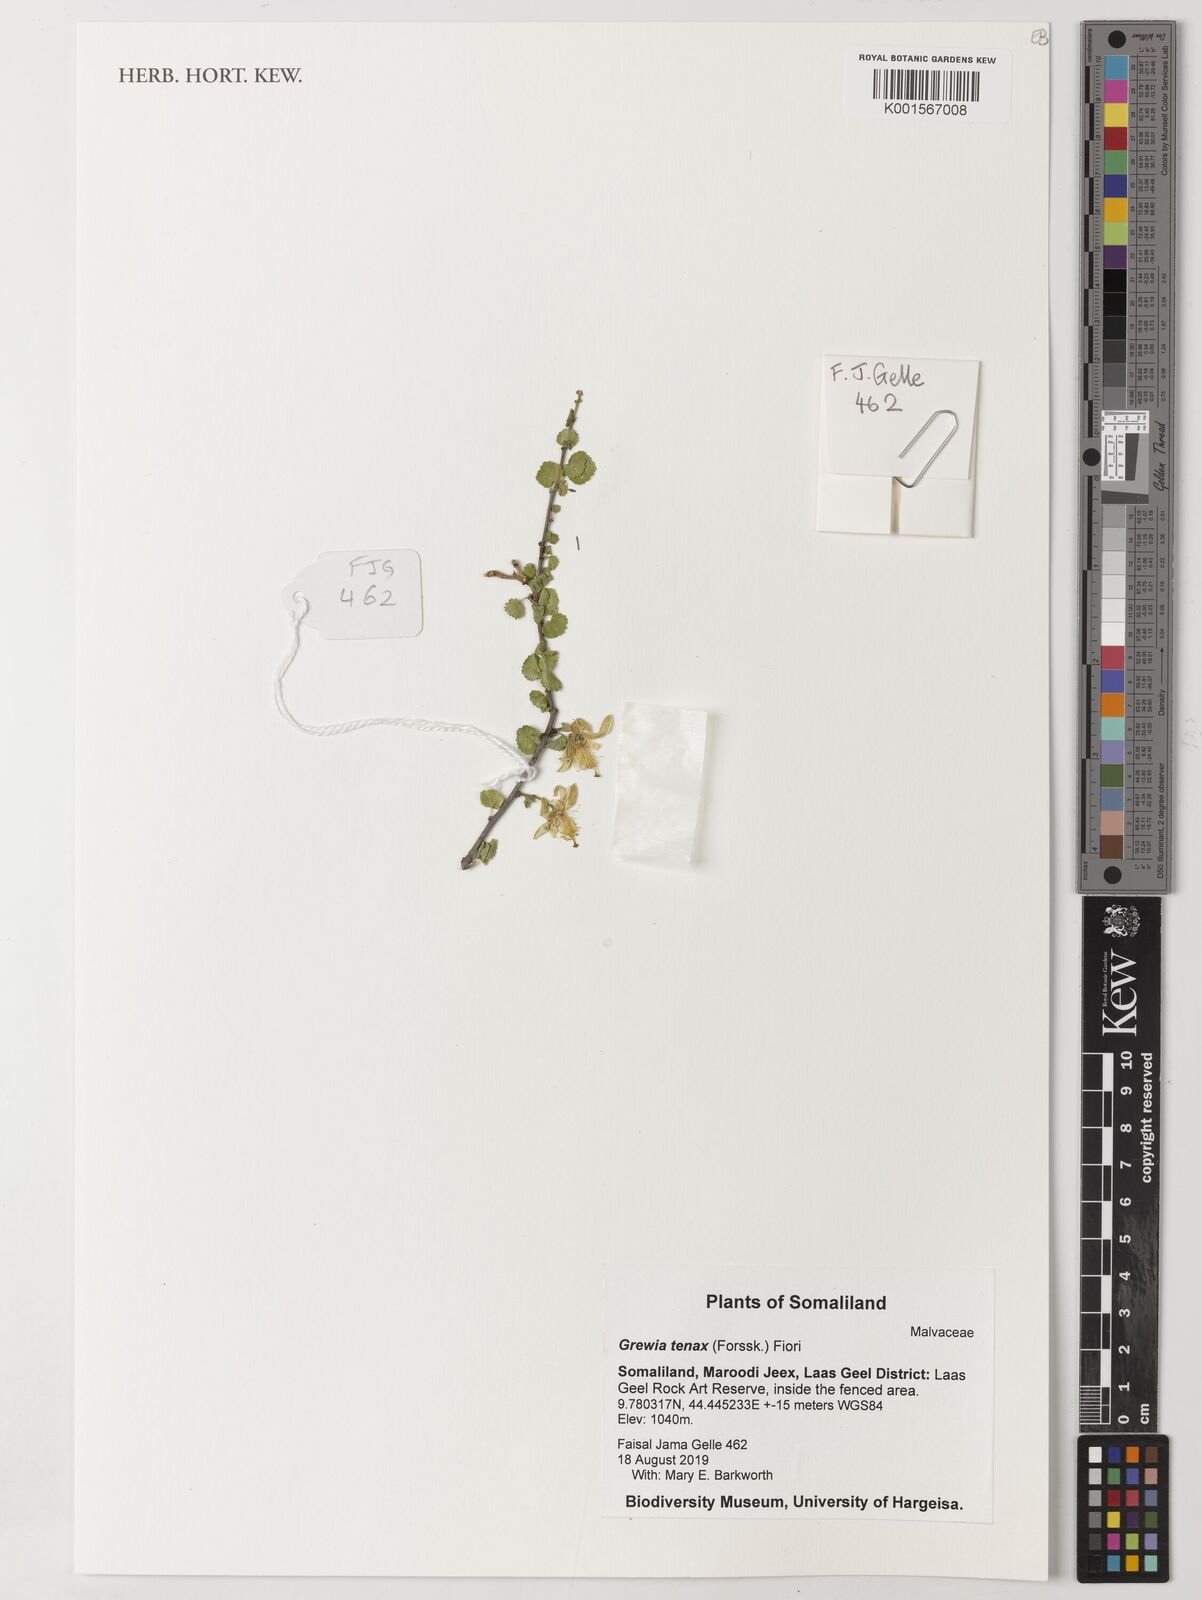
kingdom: Plantae
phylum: Tracheophyta
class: Magnoliopsida
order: Malvales
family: Malvaceae
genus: Grewia
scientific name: Grewia tenax
